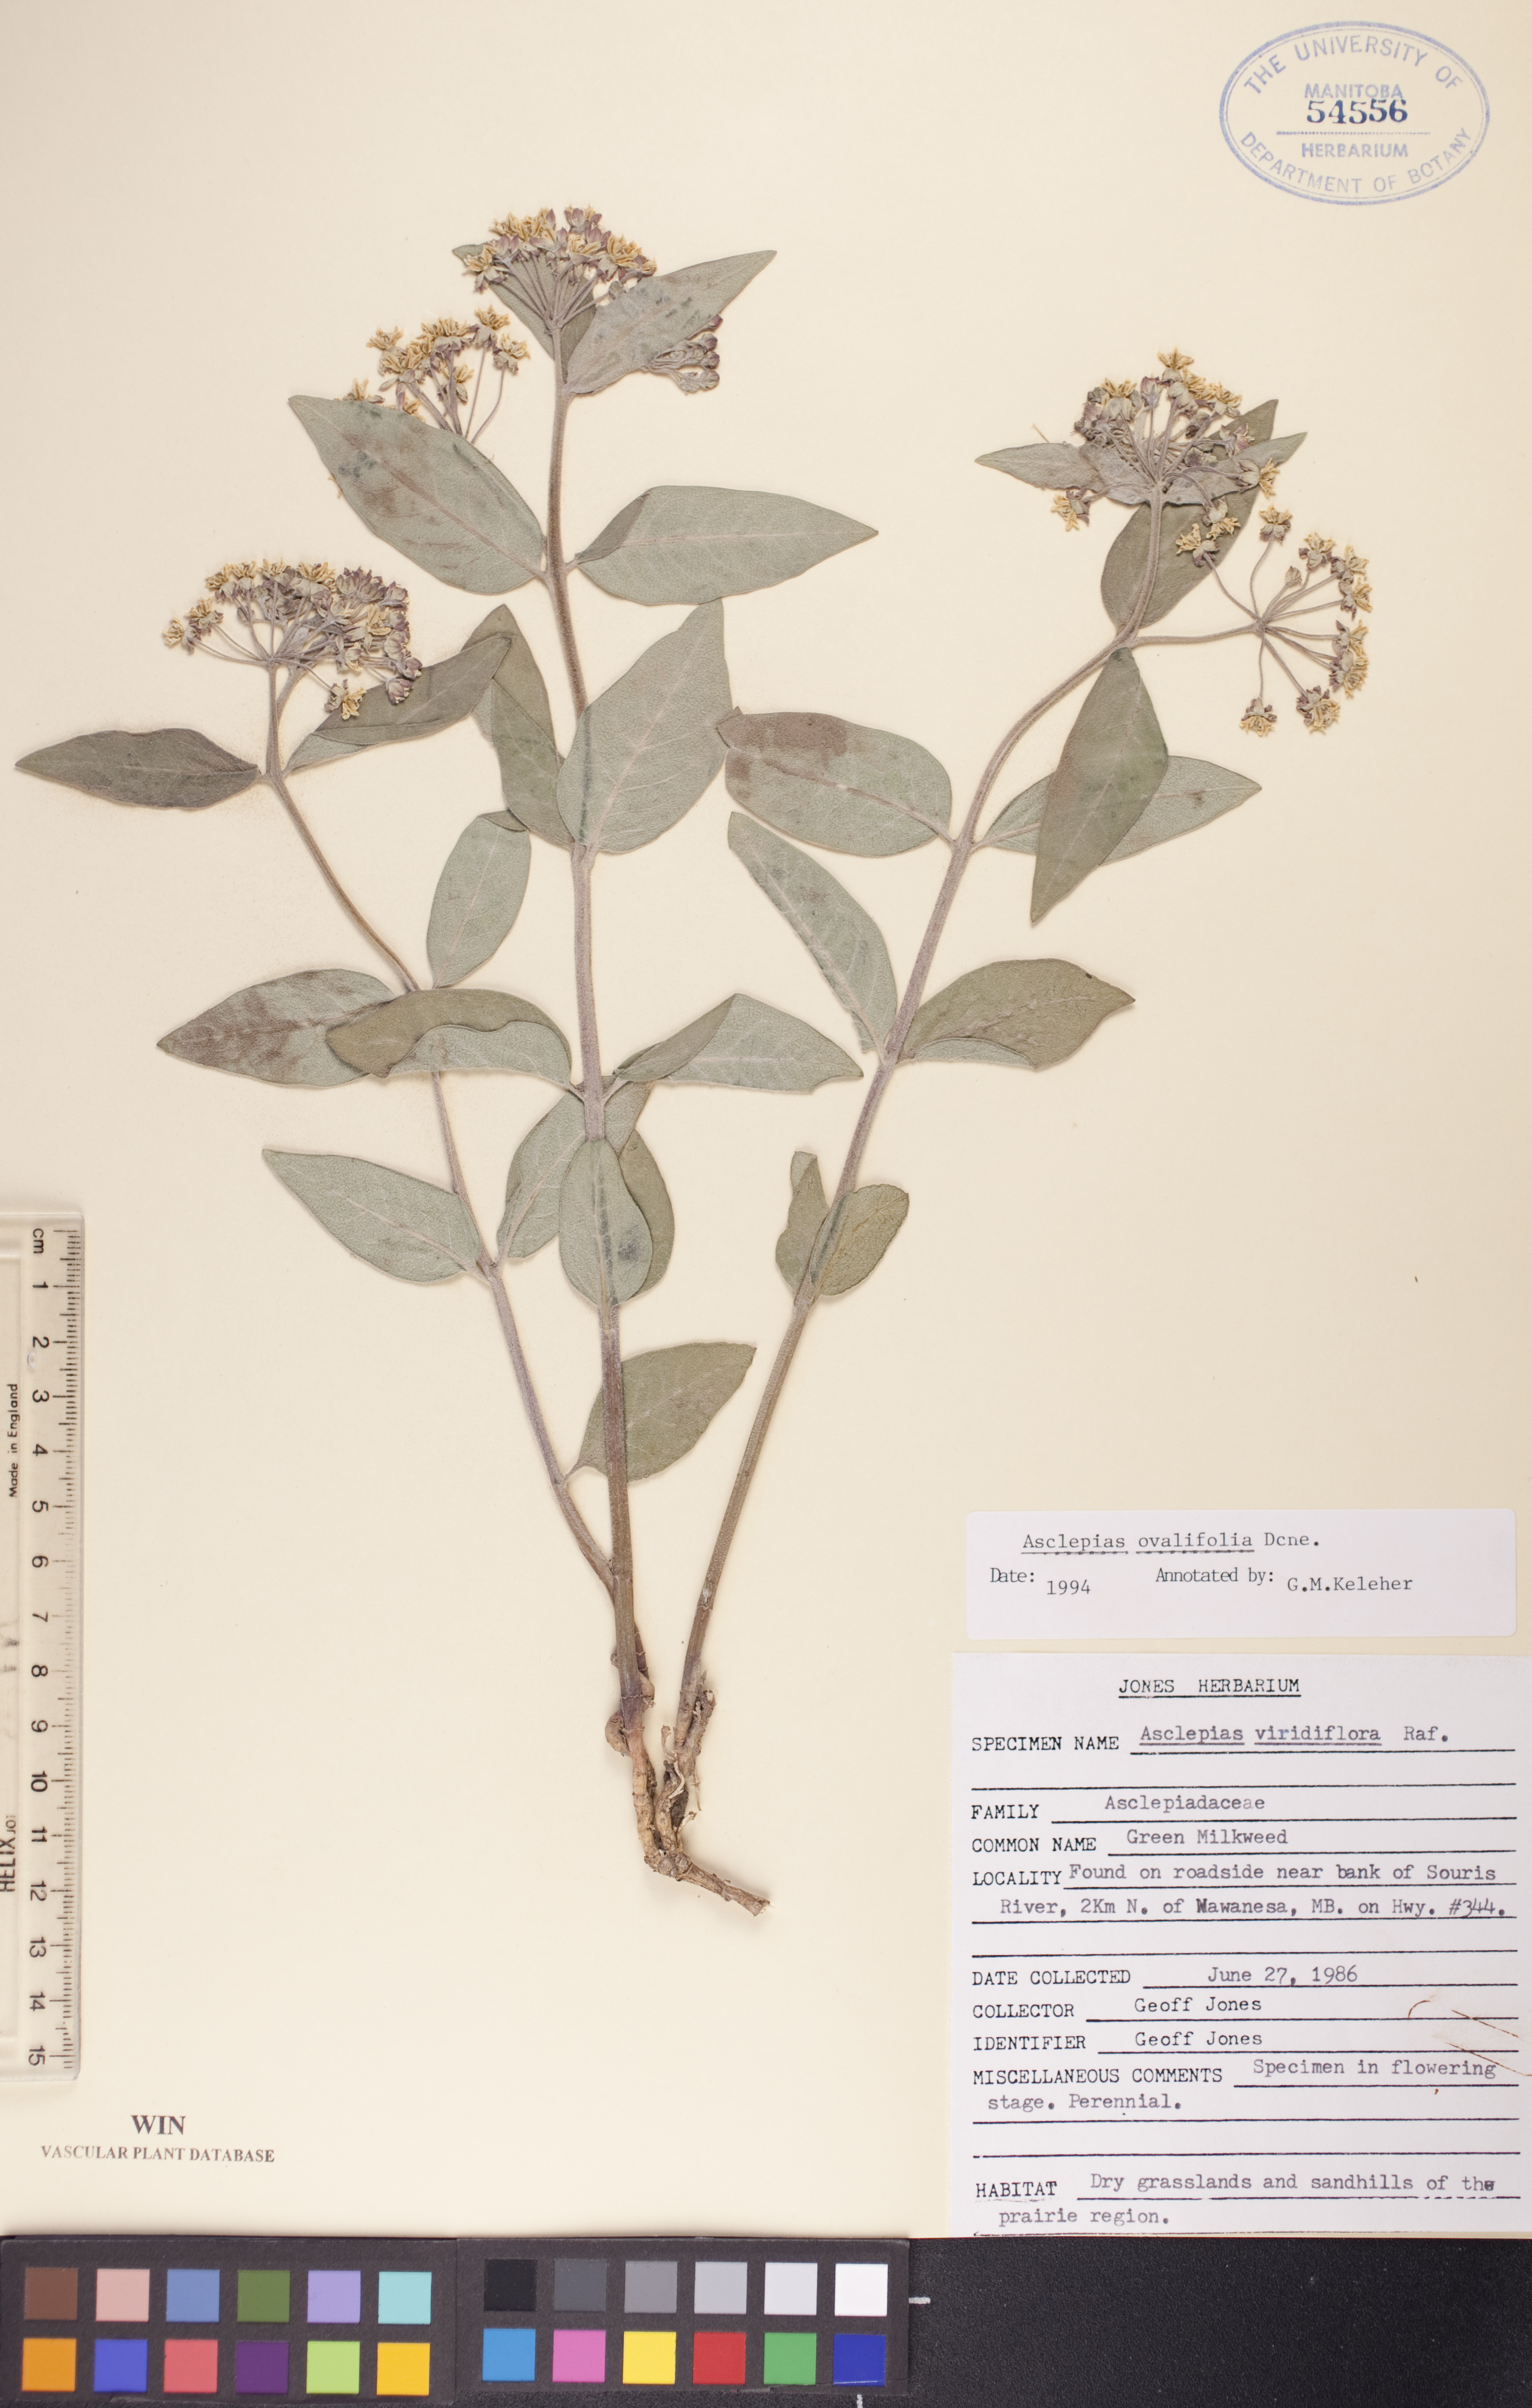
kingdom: Plantae
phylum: Tracheophyta
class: Magnoliopsida
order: Gentianales
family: Apocynaceae
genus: Asclepias
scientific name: Asclepias ovalifolia
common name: Dwarf milkweed
